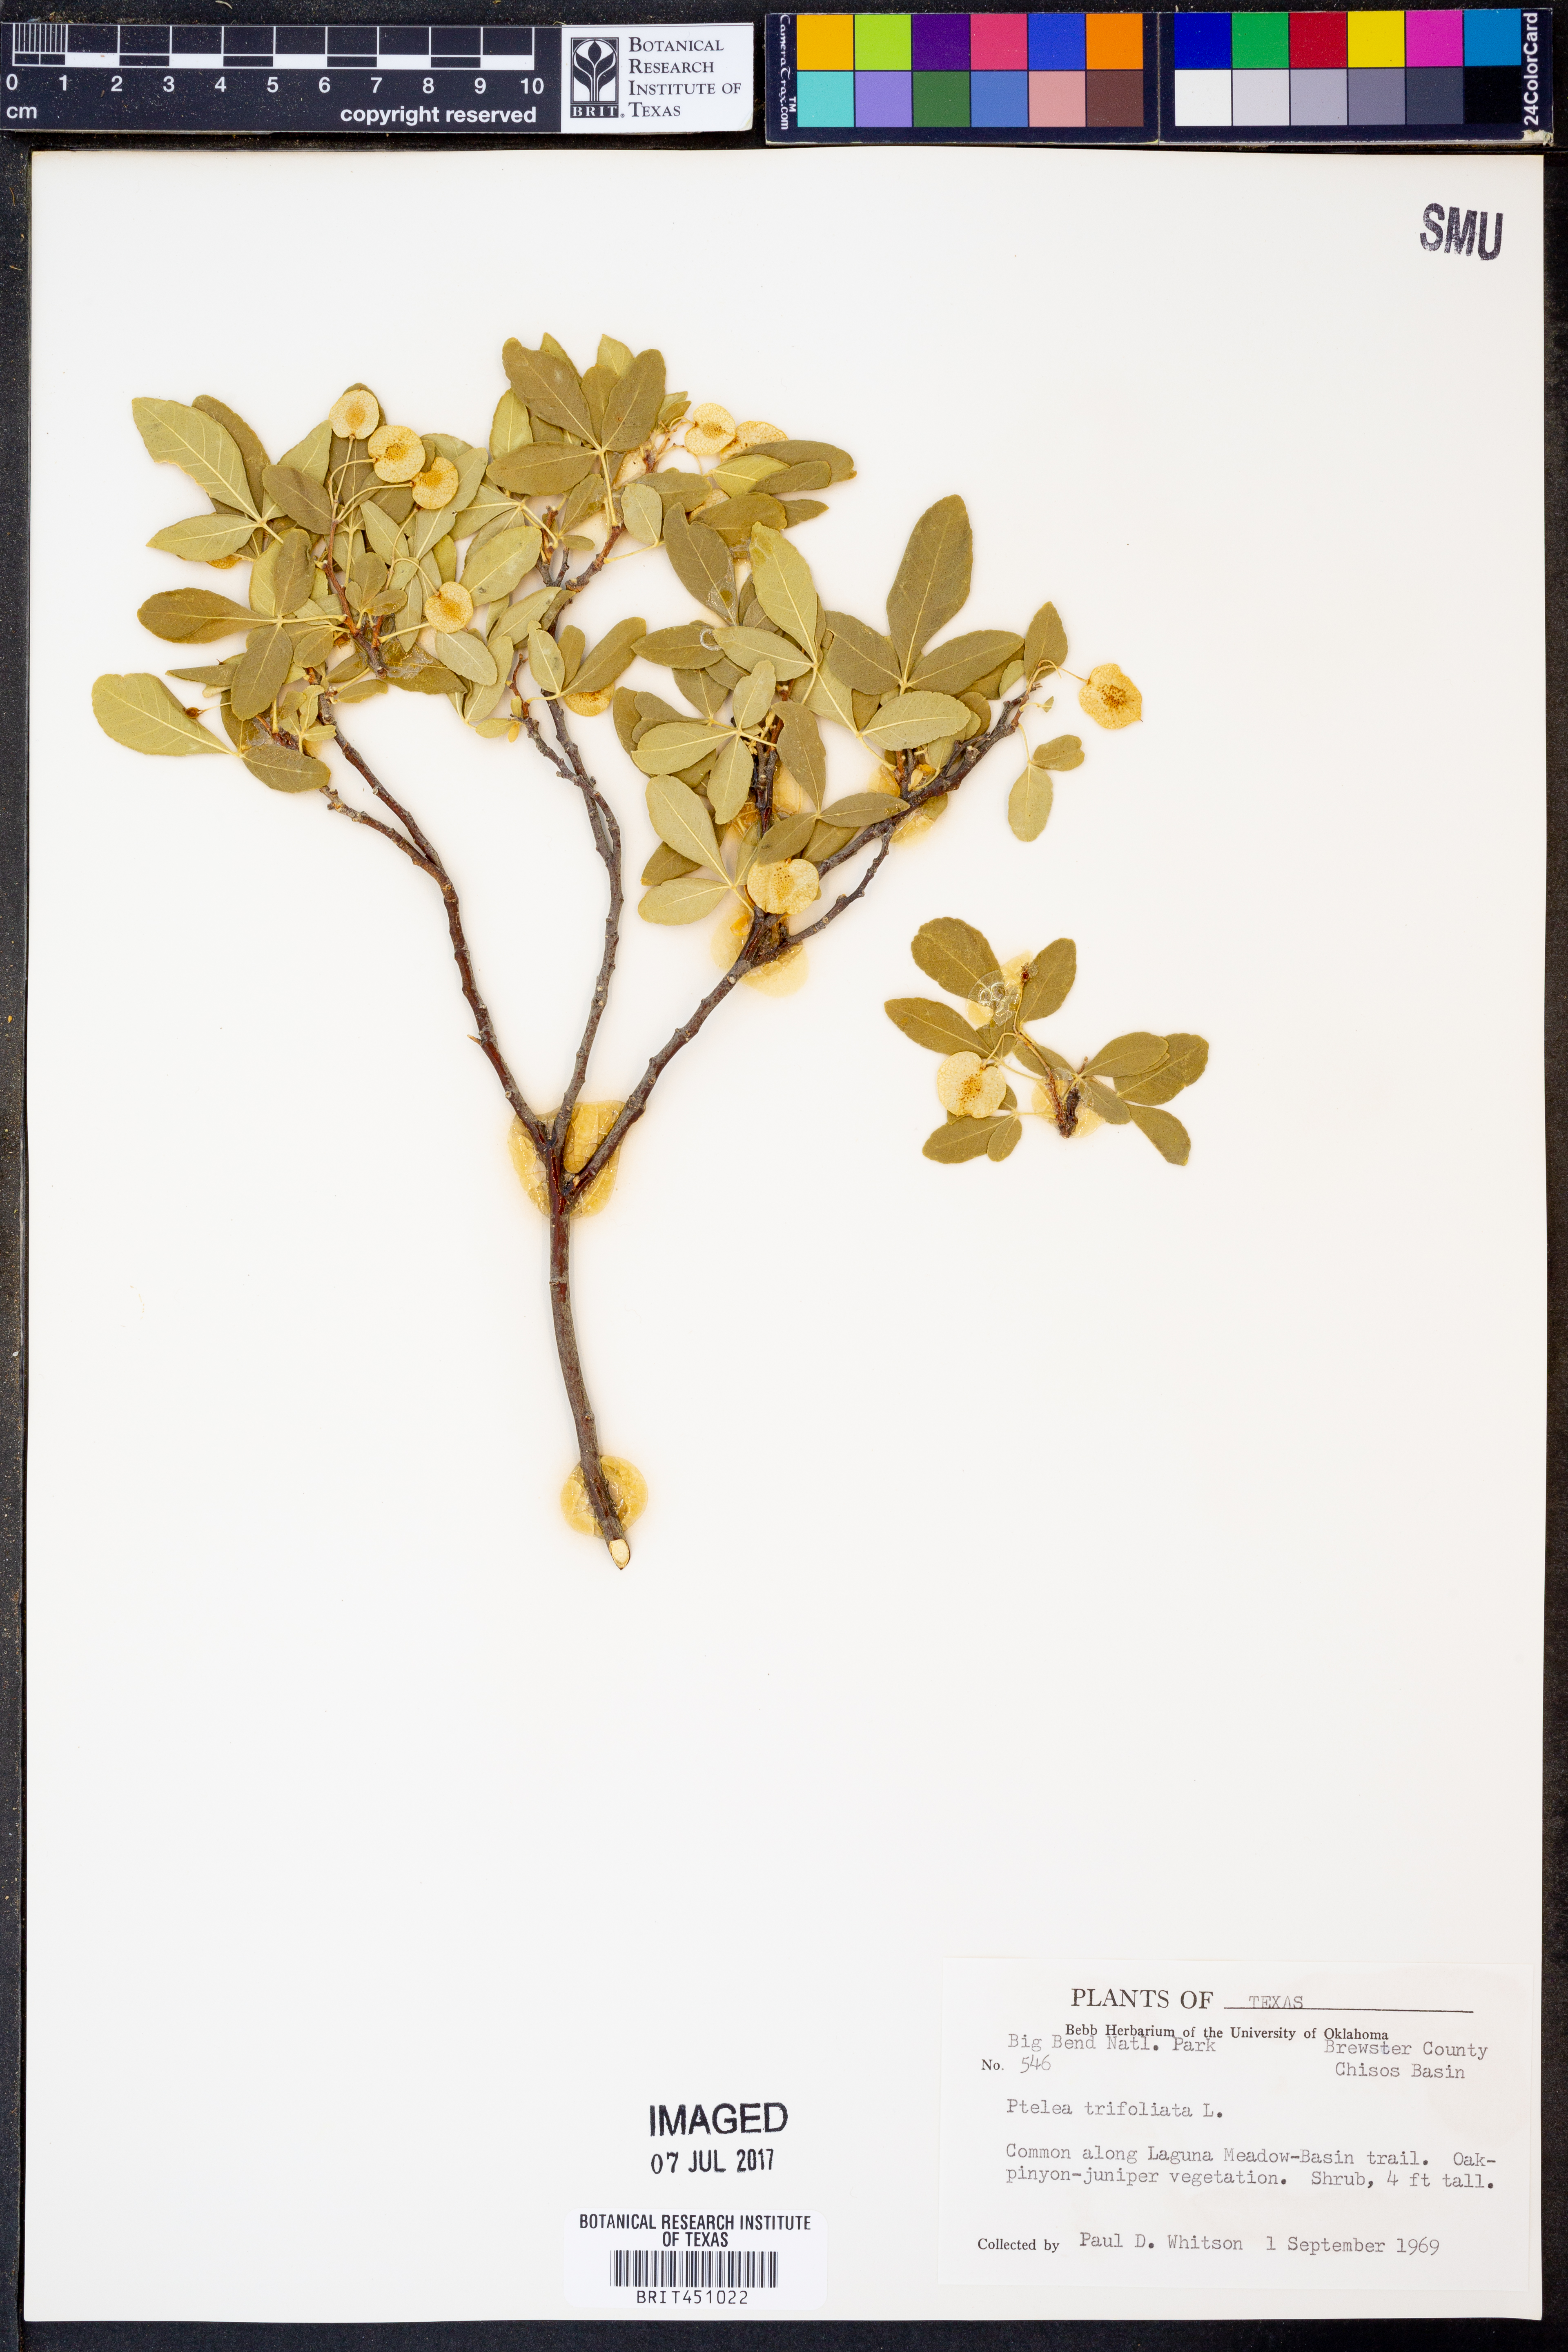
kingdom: Plantae
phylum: Tracheophyta
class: Magnoliopsida
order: Sapindales
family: Rutaceae
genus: Ptelea
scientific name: Ptelea trifoliata
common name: Common hop-tree
